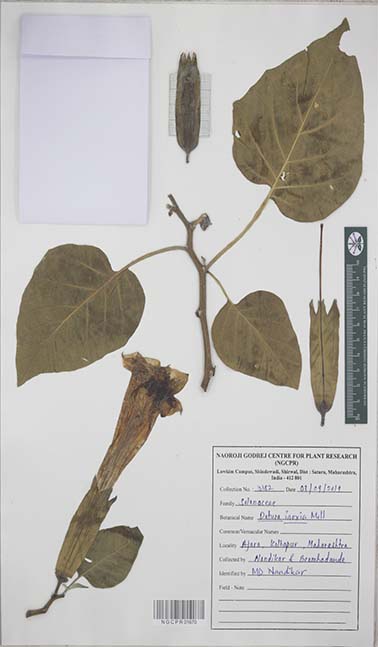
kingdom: Plantae
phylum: Tracheophyta
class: Magnoliopsida
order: Solanales
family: Solanaceae
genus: Datura
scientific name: Datura innoxia
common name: Downy thorn-apple
